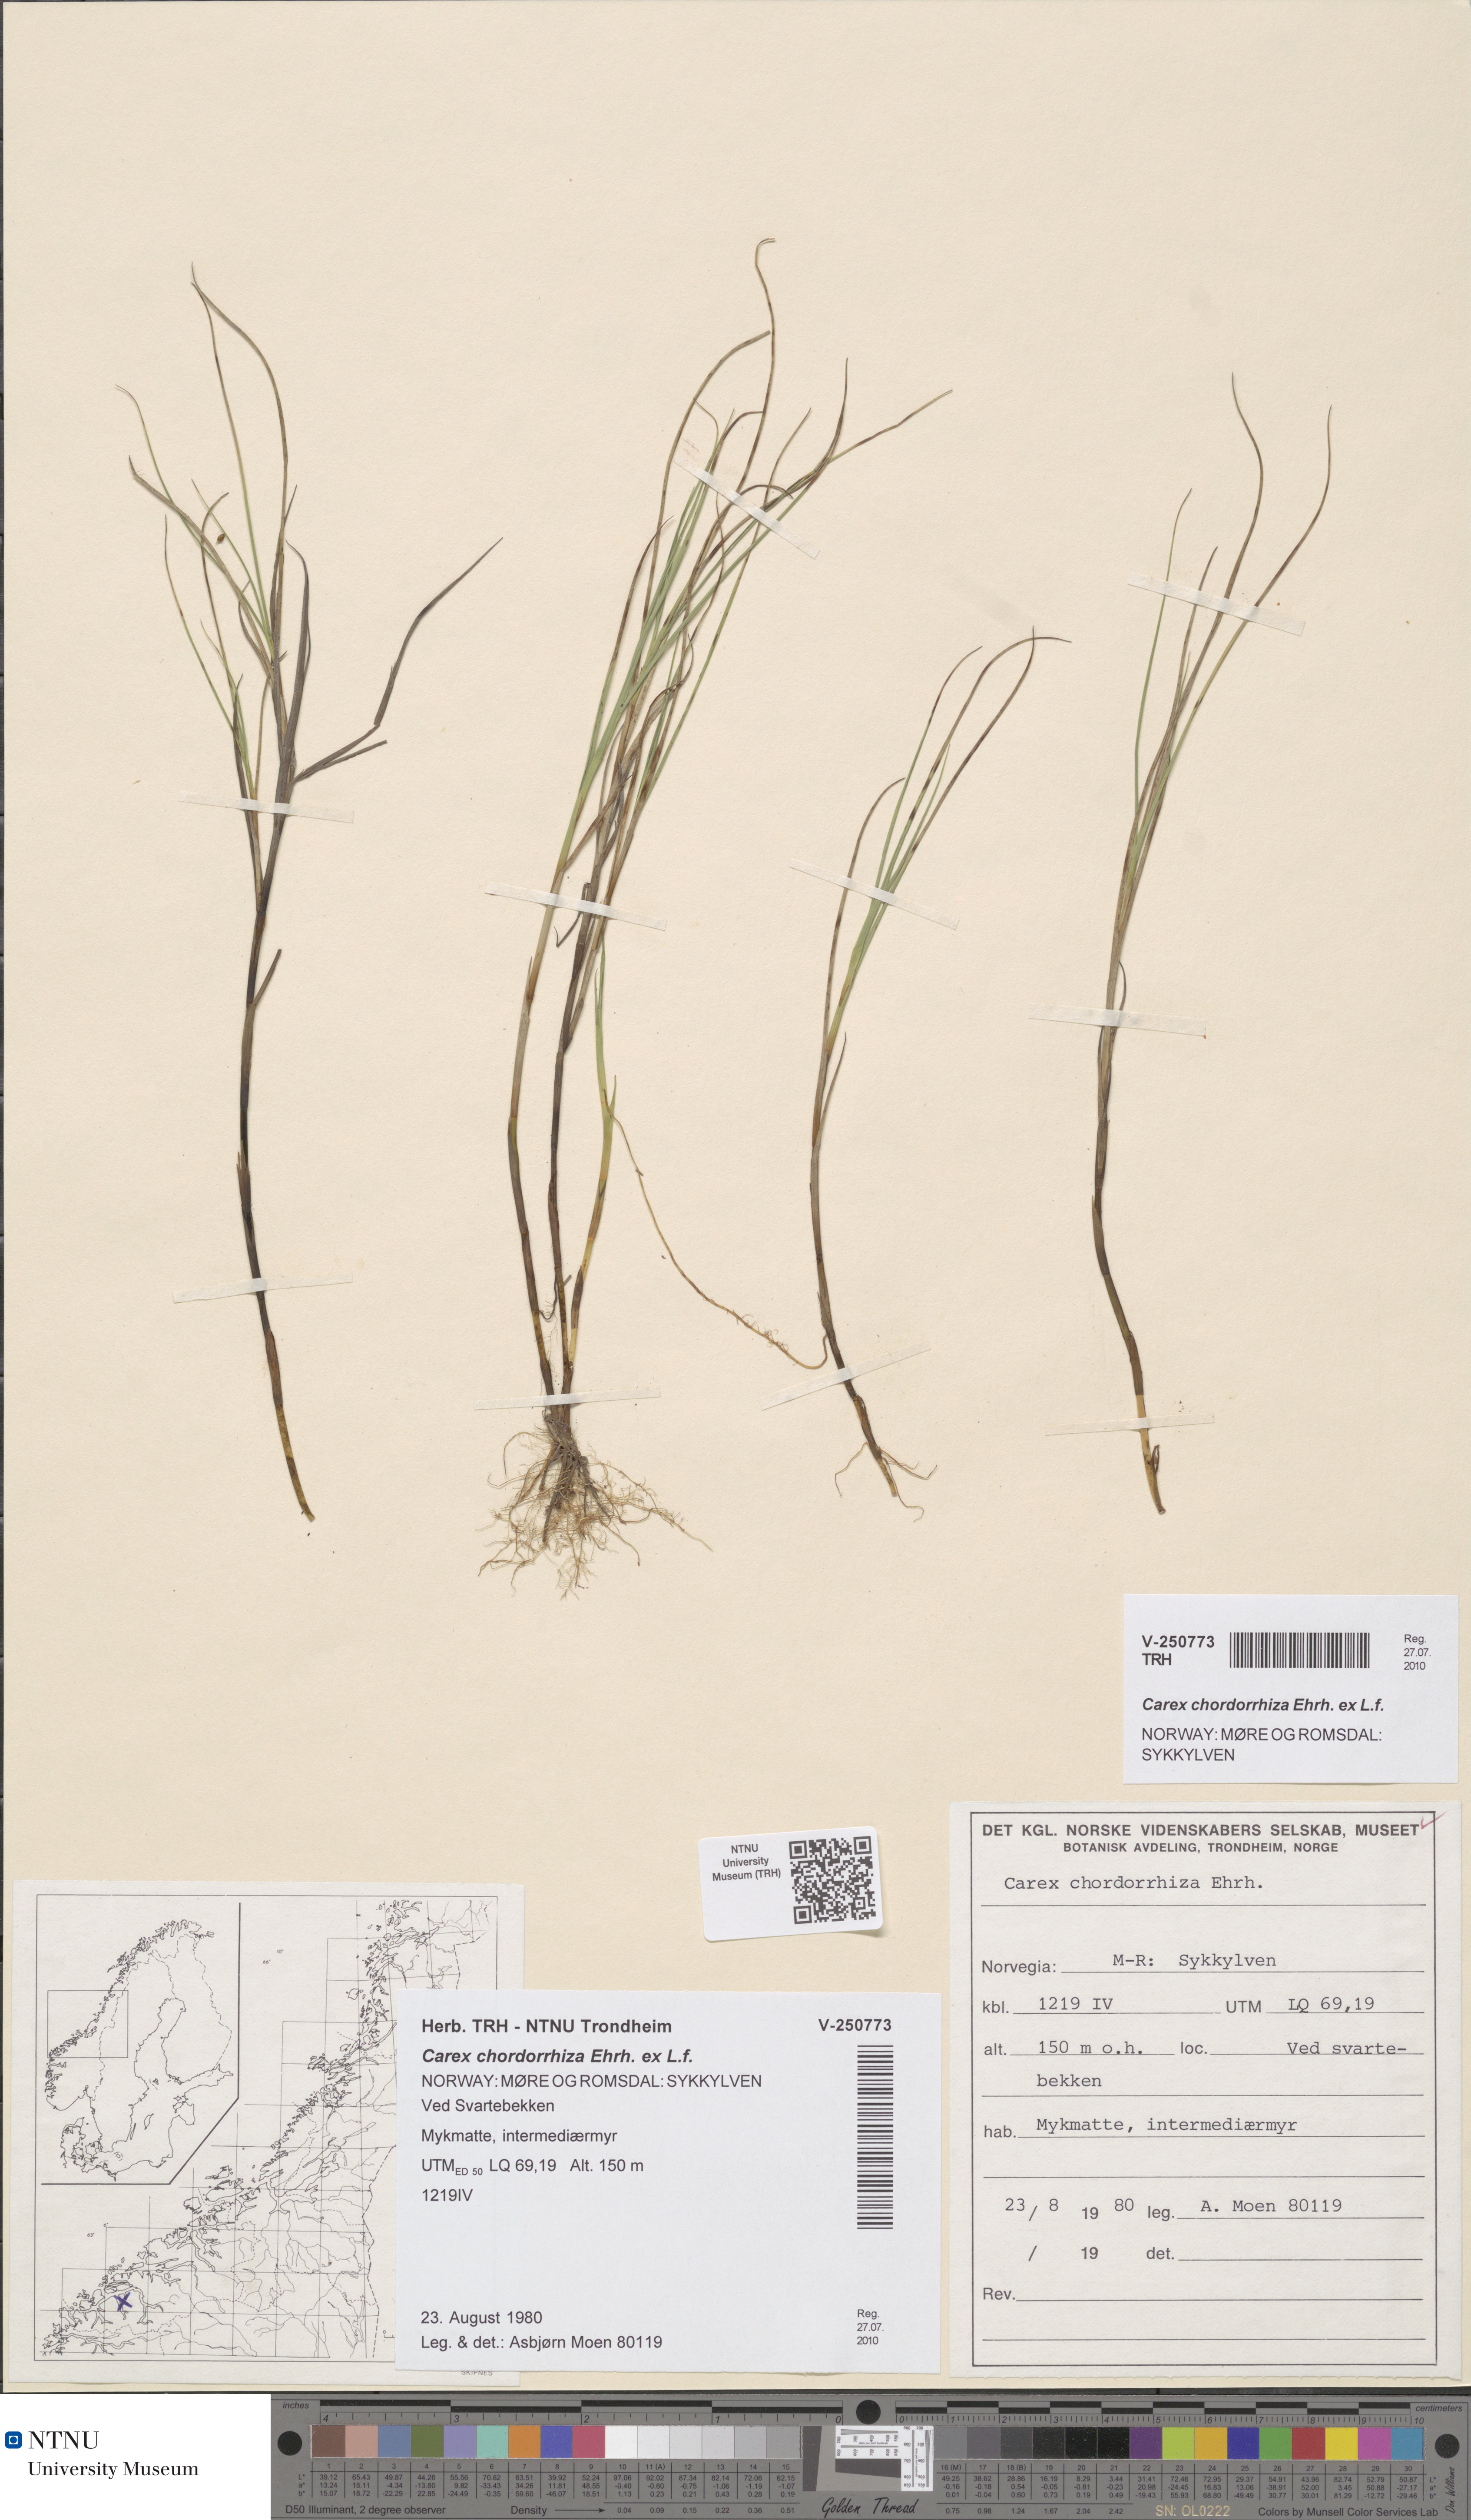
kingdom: Plantae
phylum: Tracheophyta
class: Liliopsida
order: Poales
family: Cyperaceae
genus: Carex
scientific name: Carex chordorrhiza
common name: String sedge
